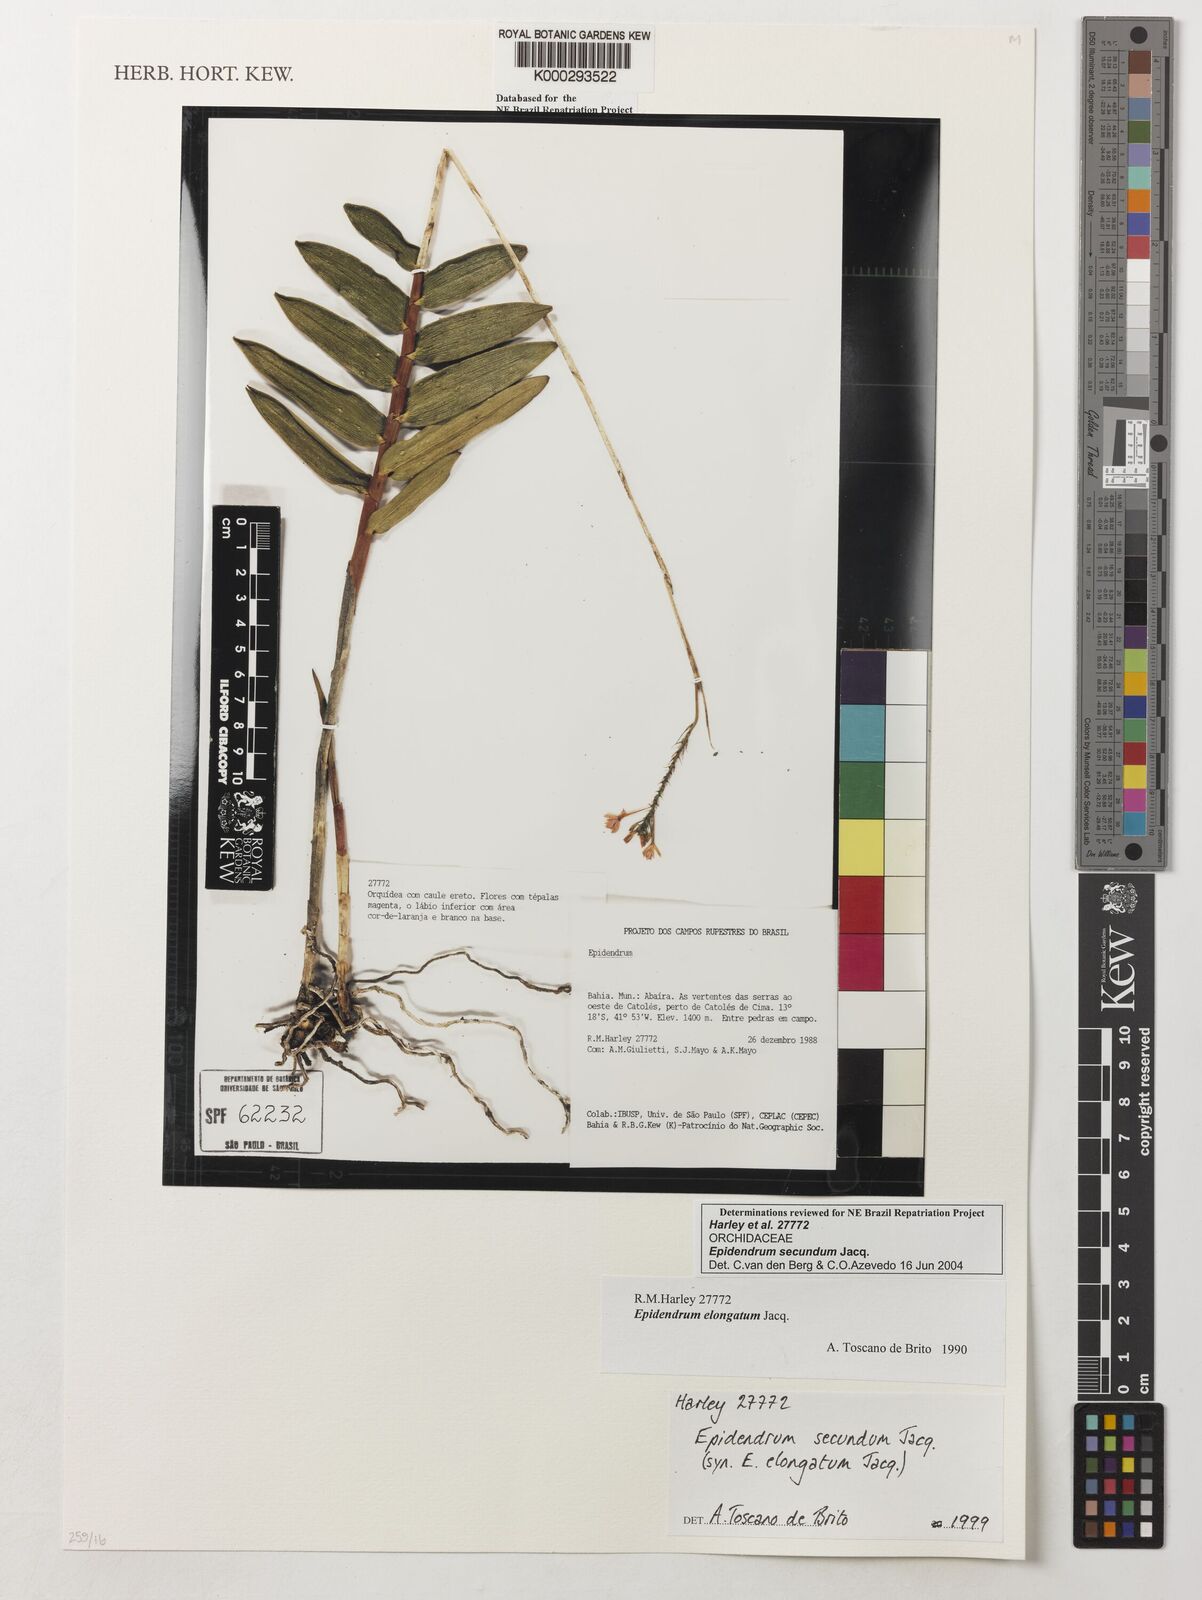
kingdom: Plantae
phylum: Tracheophyta
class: Liliopsida
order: Asparagales
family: Orchidaceae
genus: Epidendrum
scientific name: Epidendrum secundum
